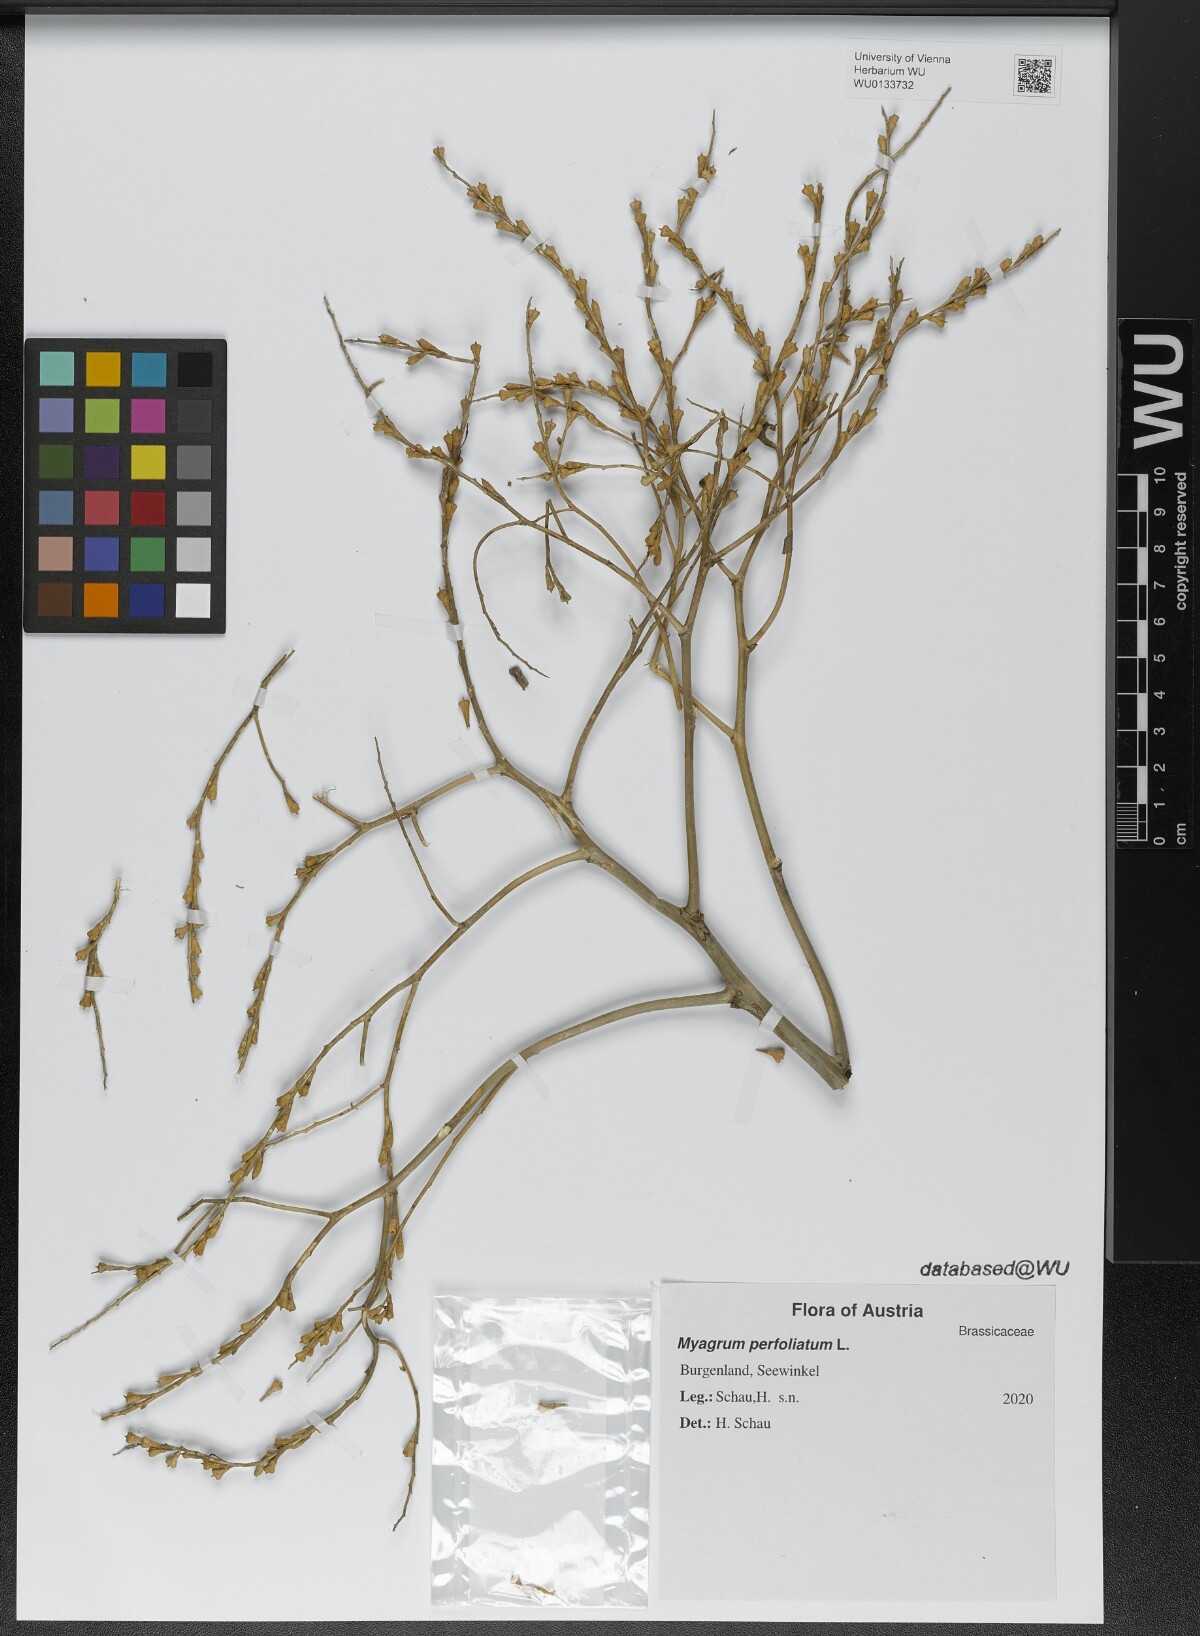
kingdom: Plantae
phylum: Tracheophyta
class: Magnoliopsida
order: Brassicales
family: Brassicaceae
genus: Myagrum
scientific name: Myagrum perfoliatum
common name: Mitre cress
